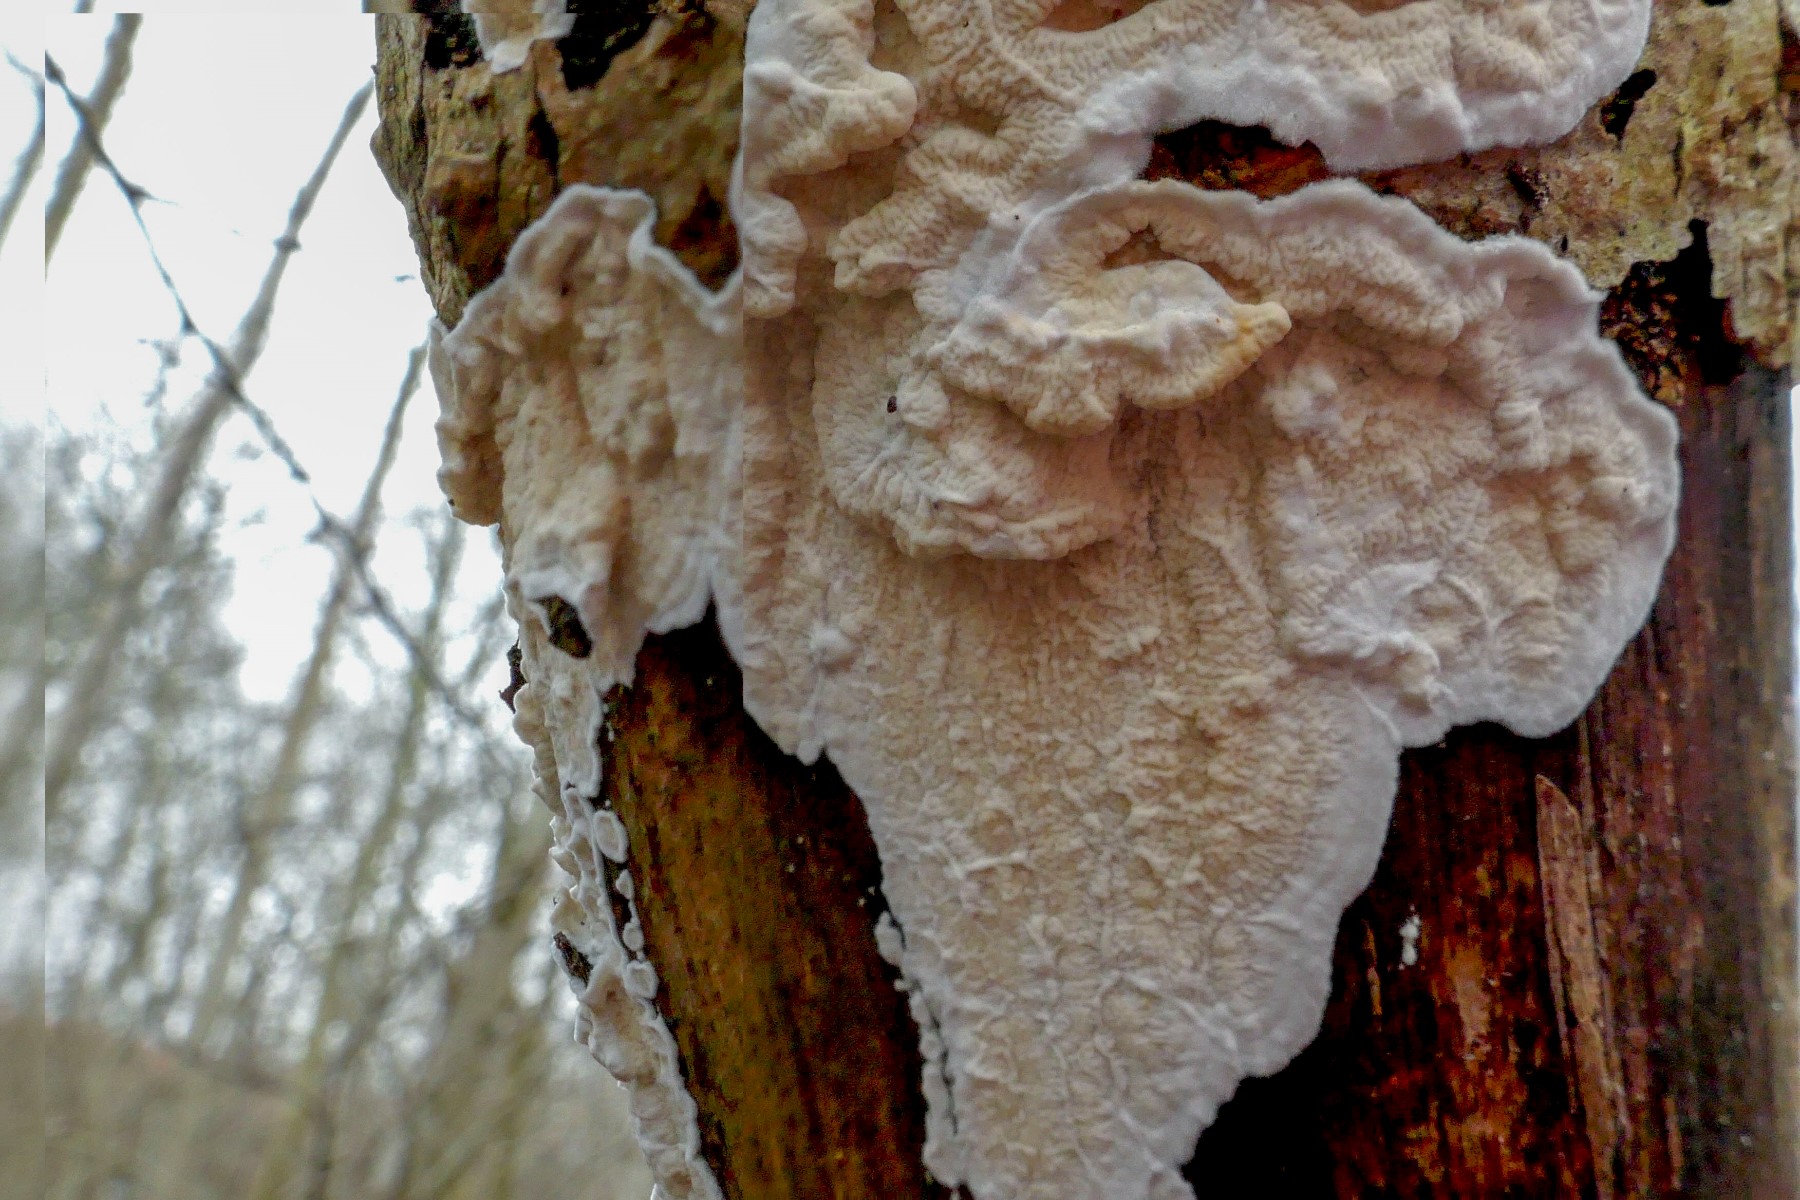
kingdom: Fungi
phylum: Basidiomycota
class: Agaricomycetes
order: Polyporales
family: Irpicaceae
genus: Byssomerulius
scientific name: Byssomerulius corium
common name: læder-åresvamp
